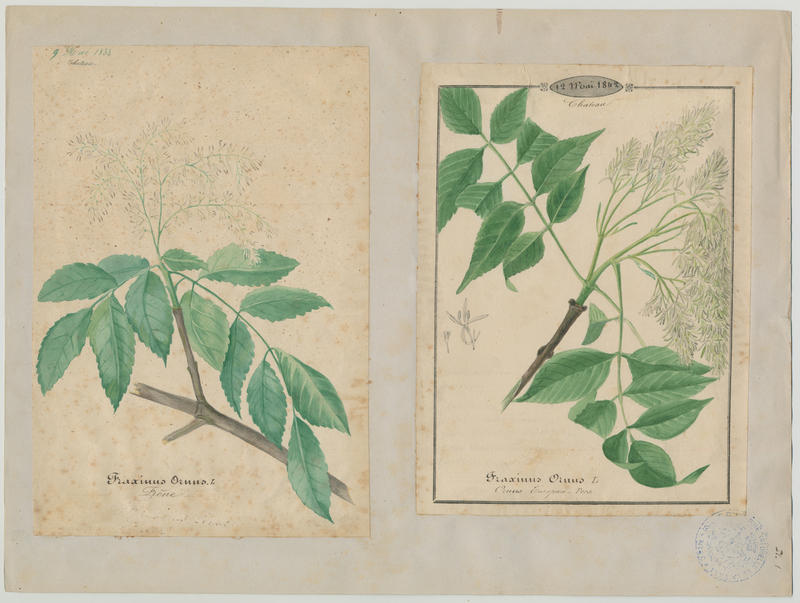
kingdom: Plantae
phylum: Tracheophyta
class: Magnoliopsida
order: Lamiales
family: Oleaceae
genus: Fraxinus
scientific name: Fraxinus ornus
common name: Manna ash
